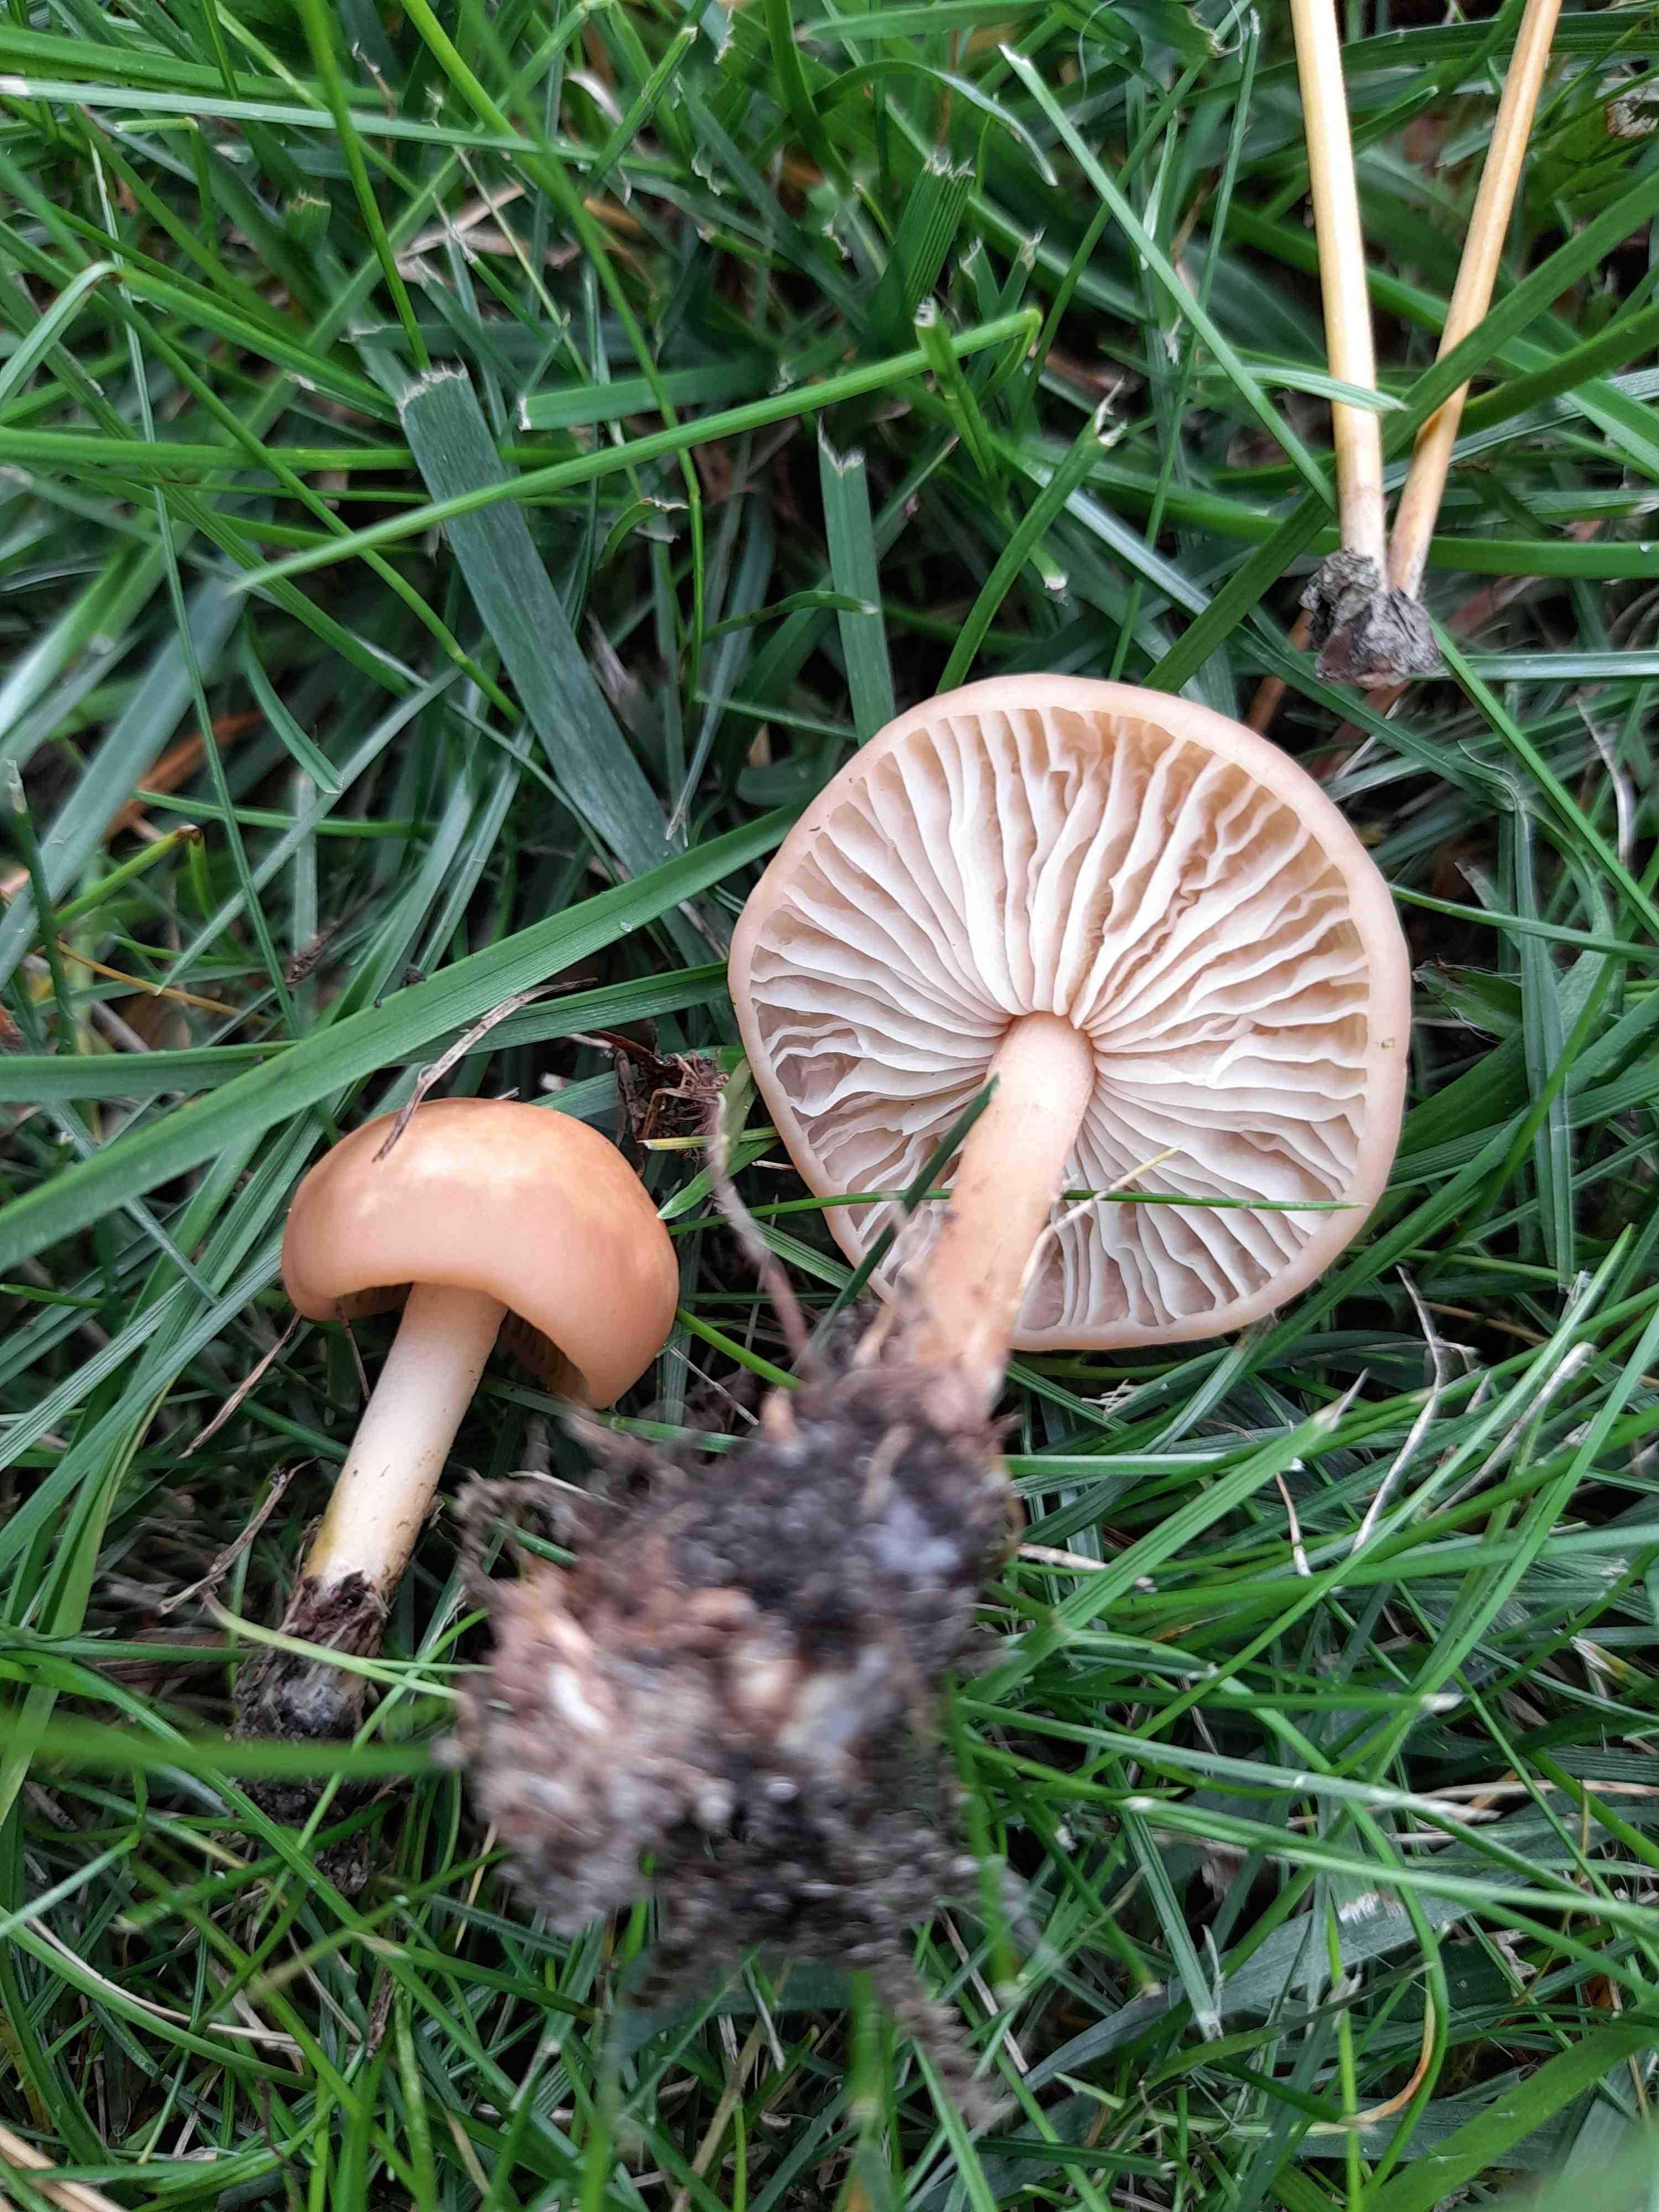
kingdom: Fungi
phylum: Basidiomycota
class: Agaricomycetes
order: Agaricales
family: Marasmiaceae
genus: Marasmius
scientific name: Marasmius oreades
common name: elledans-bruskhat
